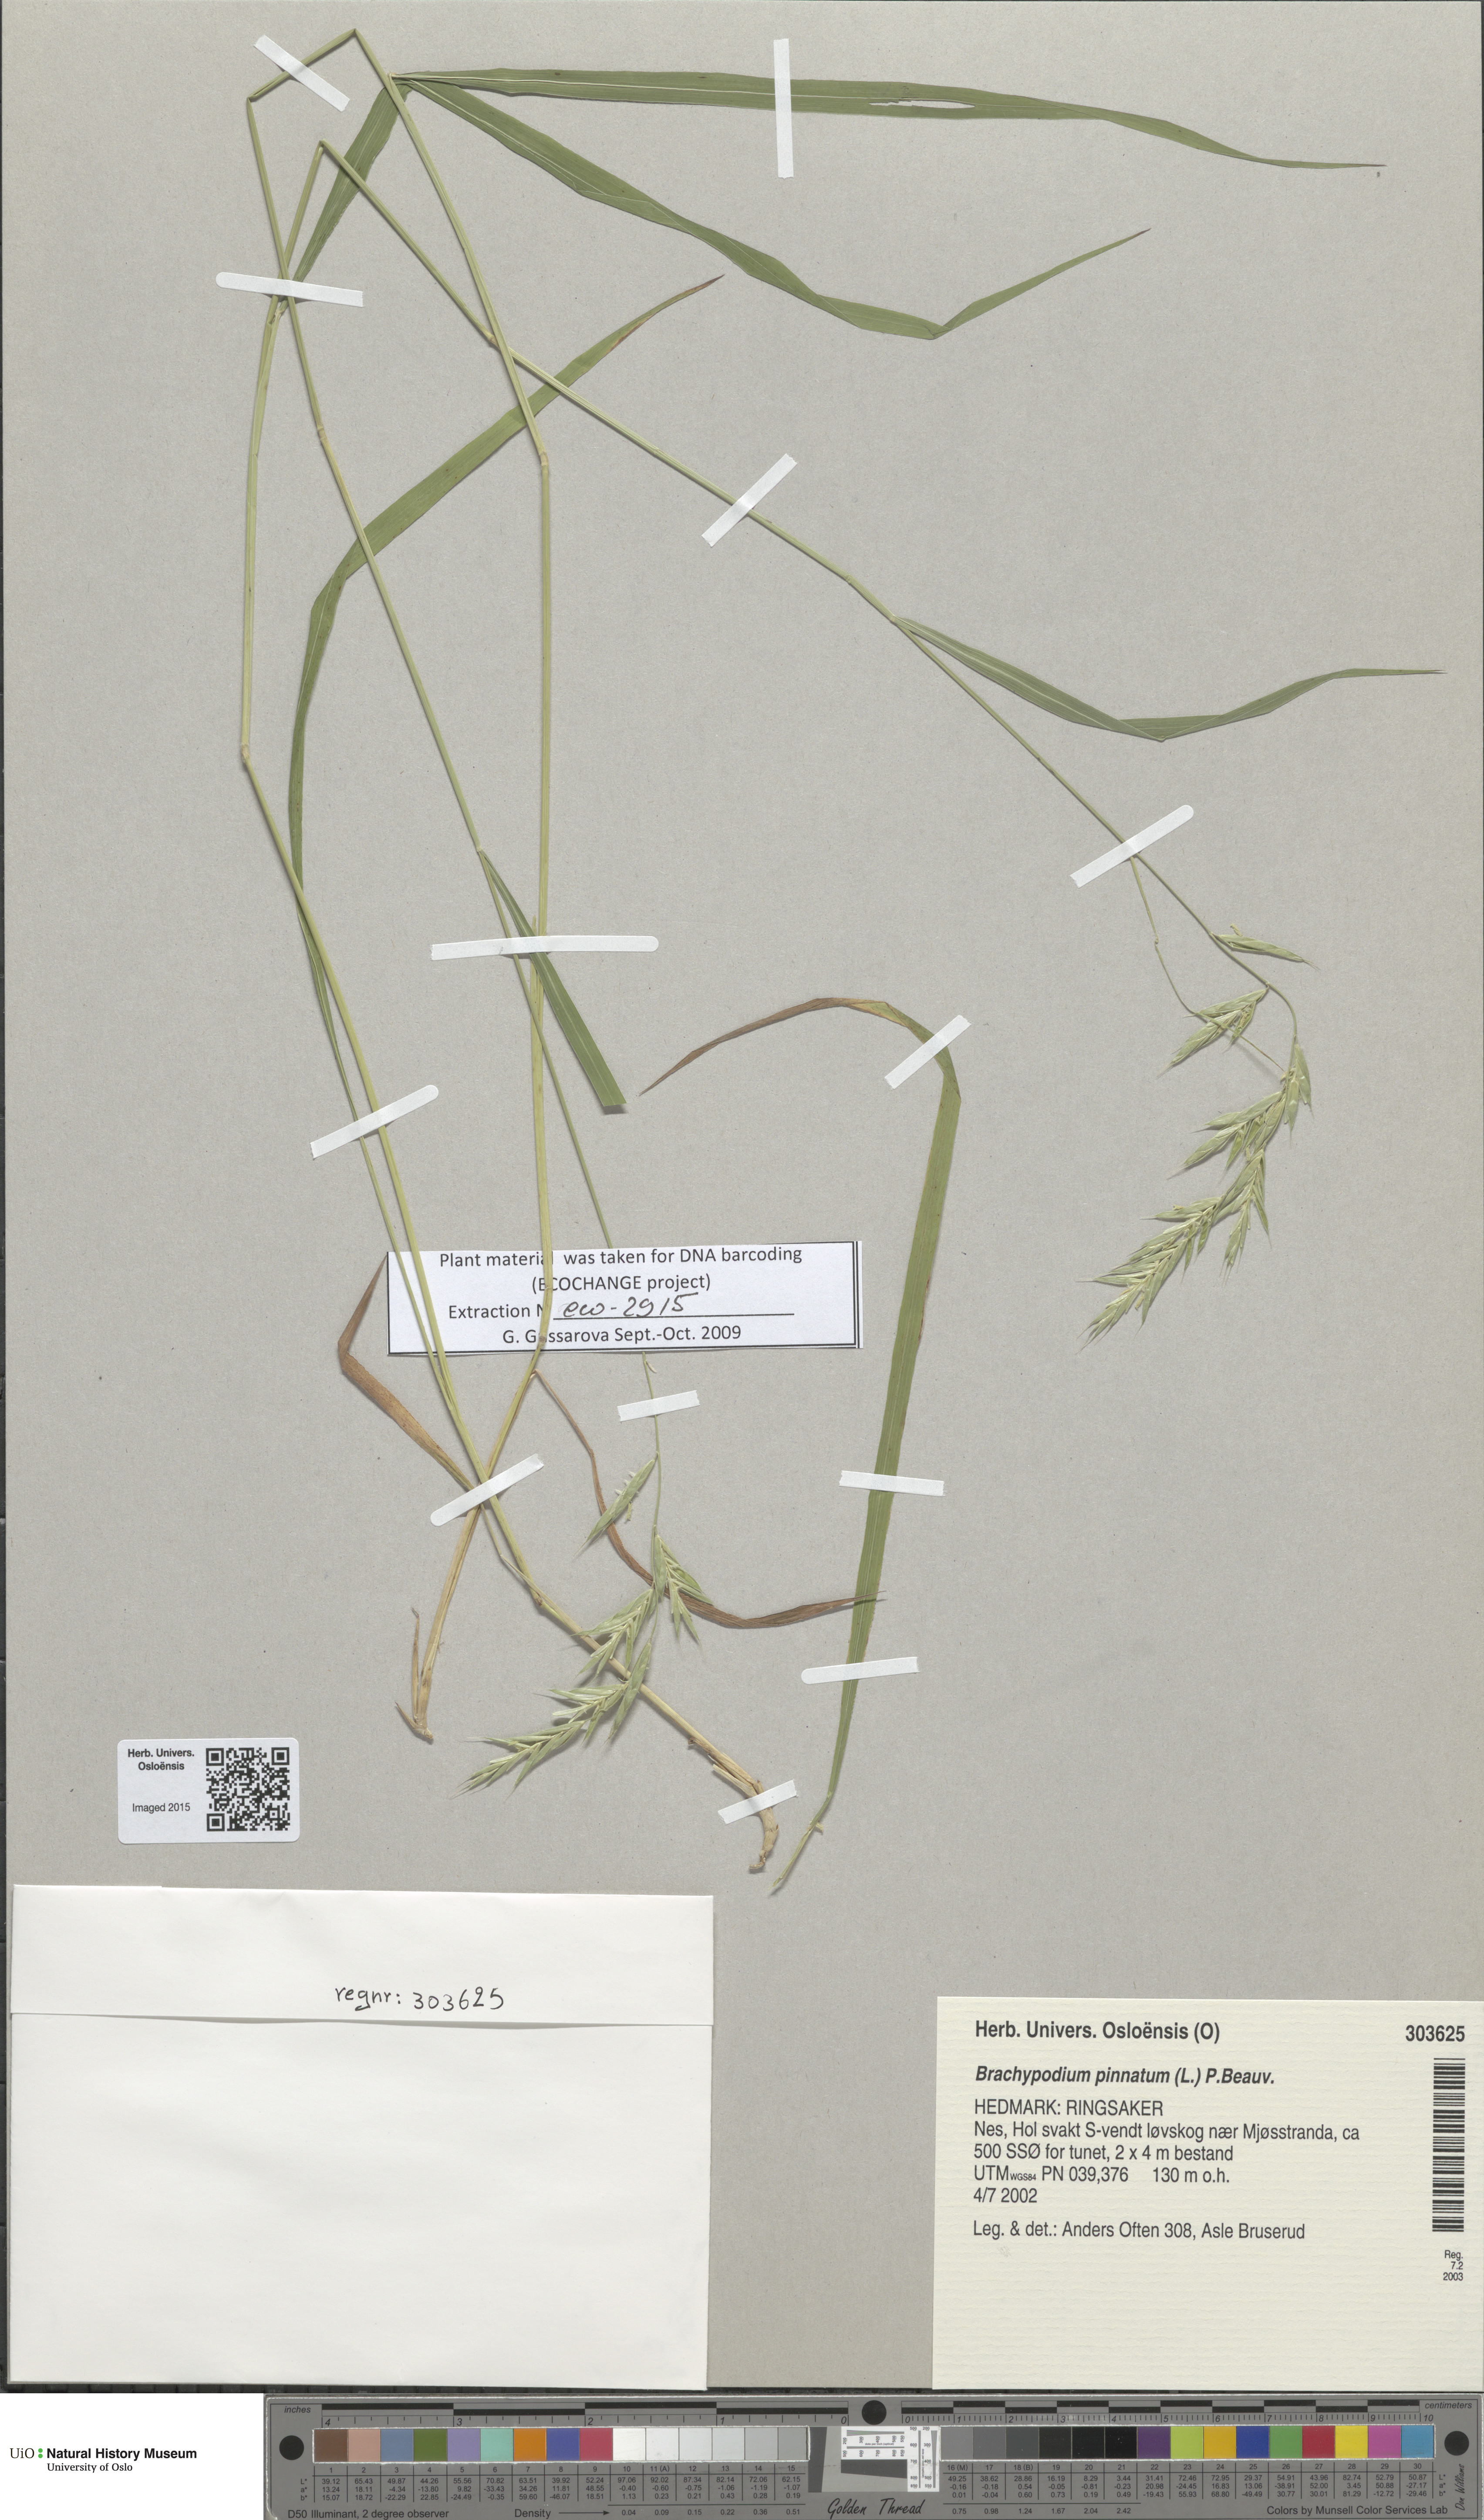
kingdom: Plantae
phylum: Tracheophyta
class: Liliopsida
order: Poales
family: Poaceae
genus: Brachypodium
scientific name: Brachypodium pinnatum
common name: Tor grass
